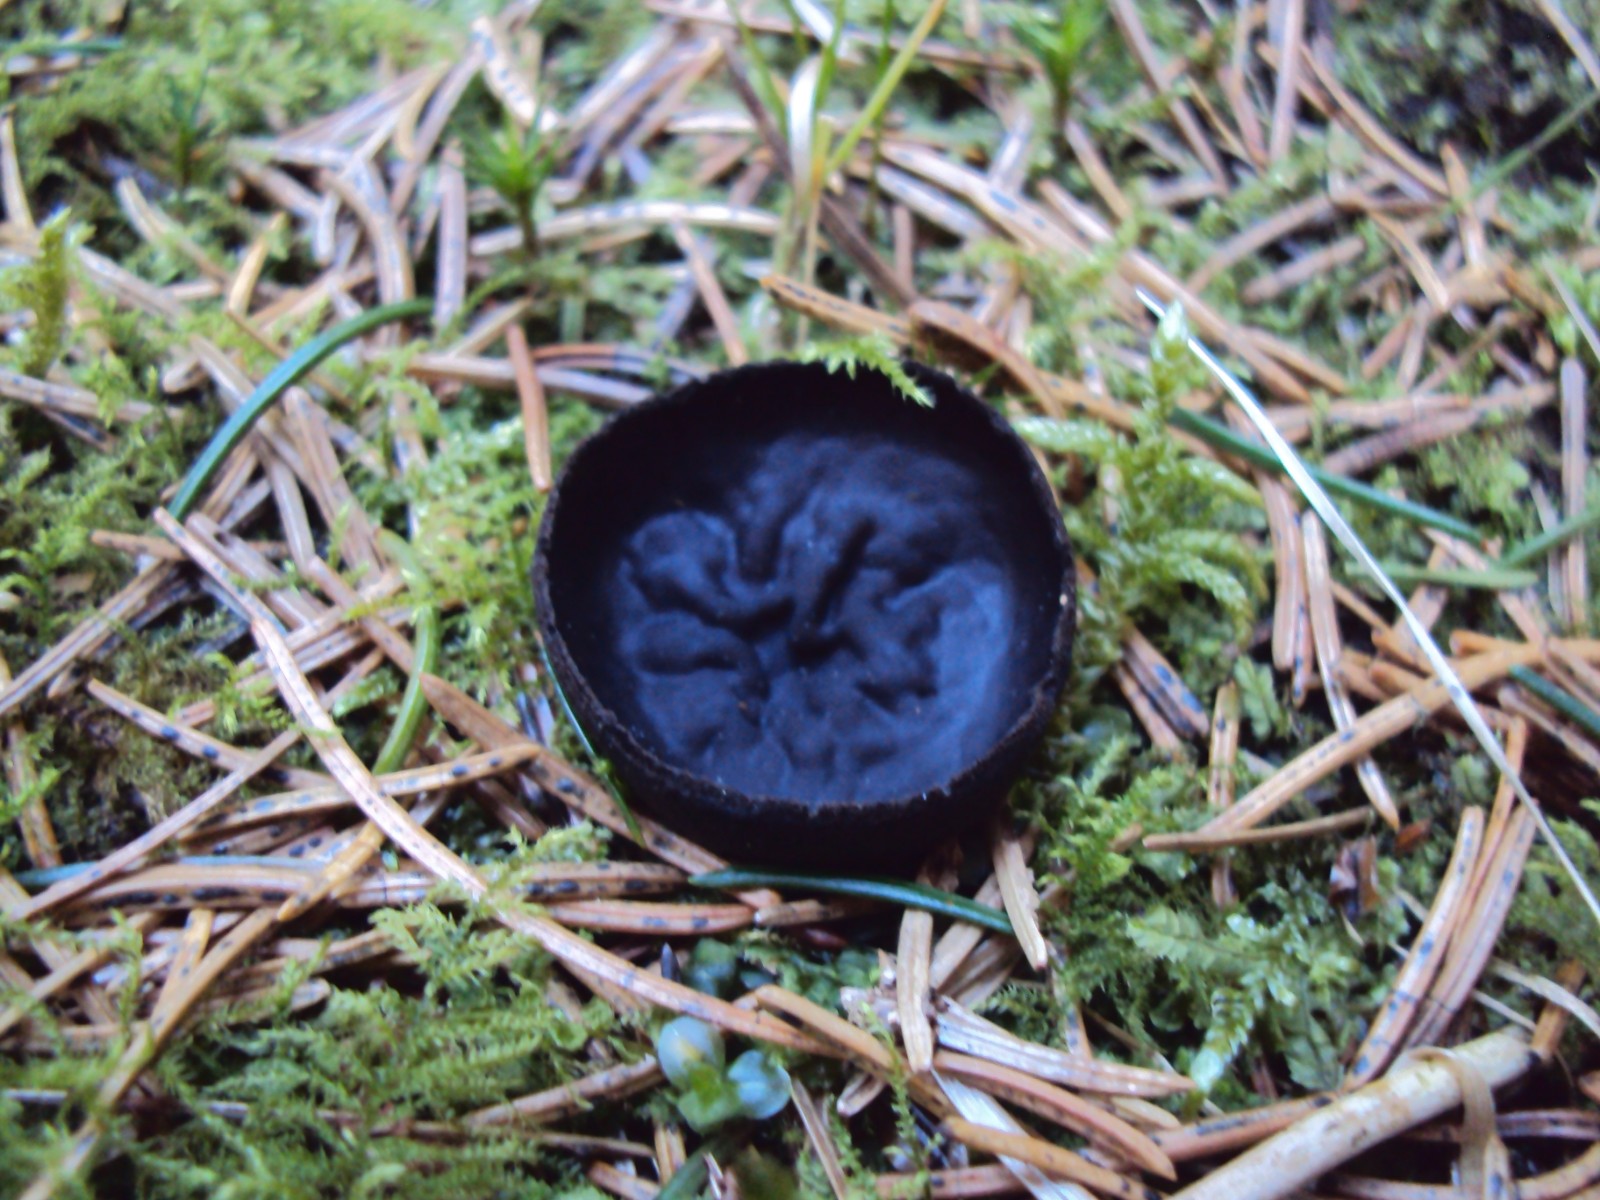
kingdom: Fungi
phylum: Ascomycota
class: Pezizomycetes
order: Pezizales
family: Sarcosomataceae
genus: Pseudoplectania
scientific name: Pseudoplectania nigrella
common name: almindelig sortbæger
